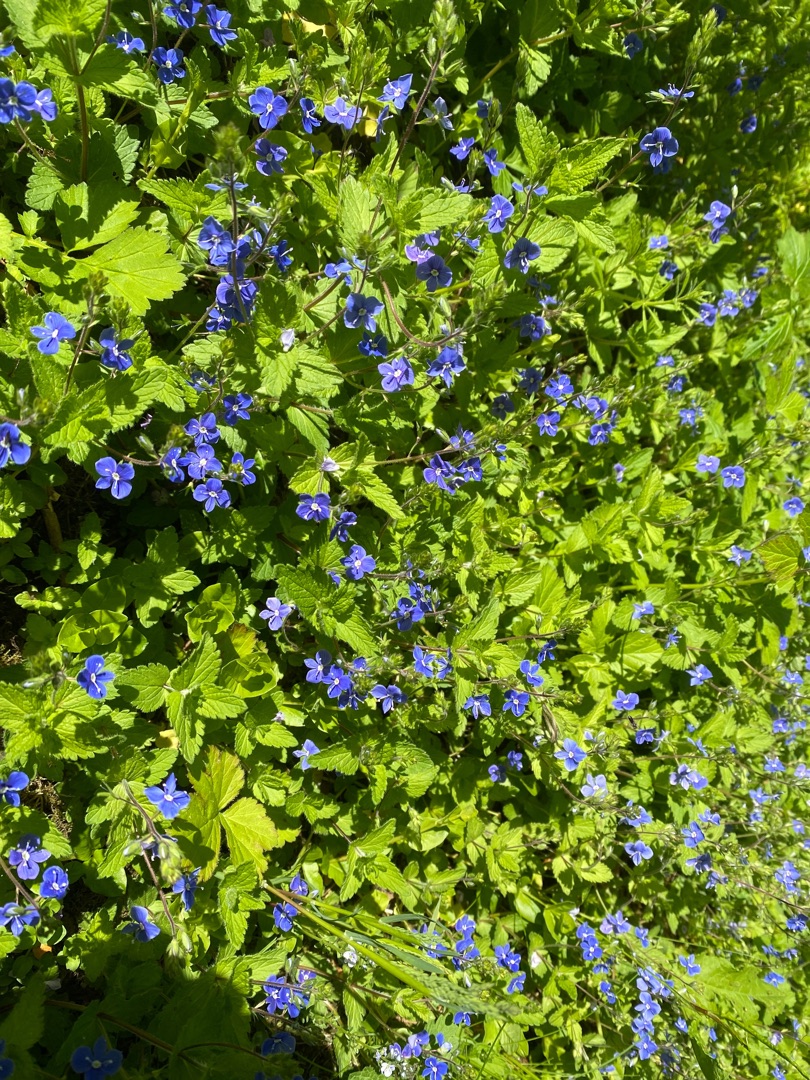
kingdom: Plantae
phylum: Tracheophyta
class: Magnoliopsida
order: Lamiales
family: Plantaginaceae
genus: Veronica
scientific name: Veronica chamaedrys
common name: Tveskægget ærenpris
